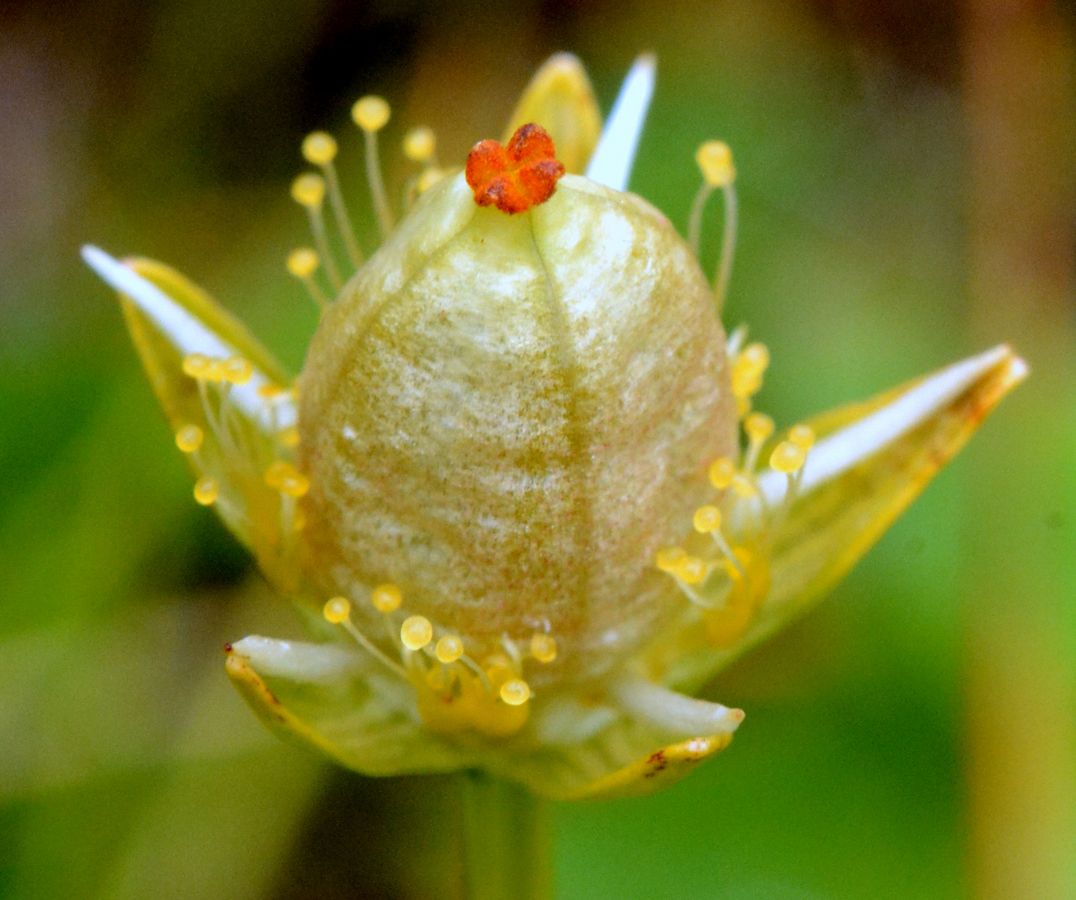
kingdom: Plantae
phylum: Tracheophyta
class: Magnoliopsida
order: Celastrales
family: Parnassiaceae
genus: Parnassia
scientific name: Parnassia palustris
